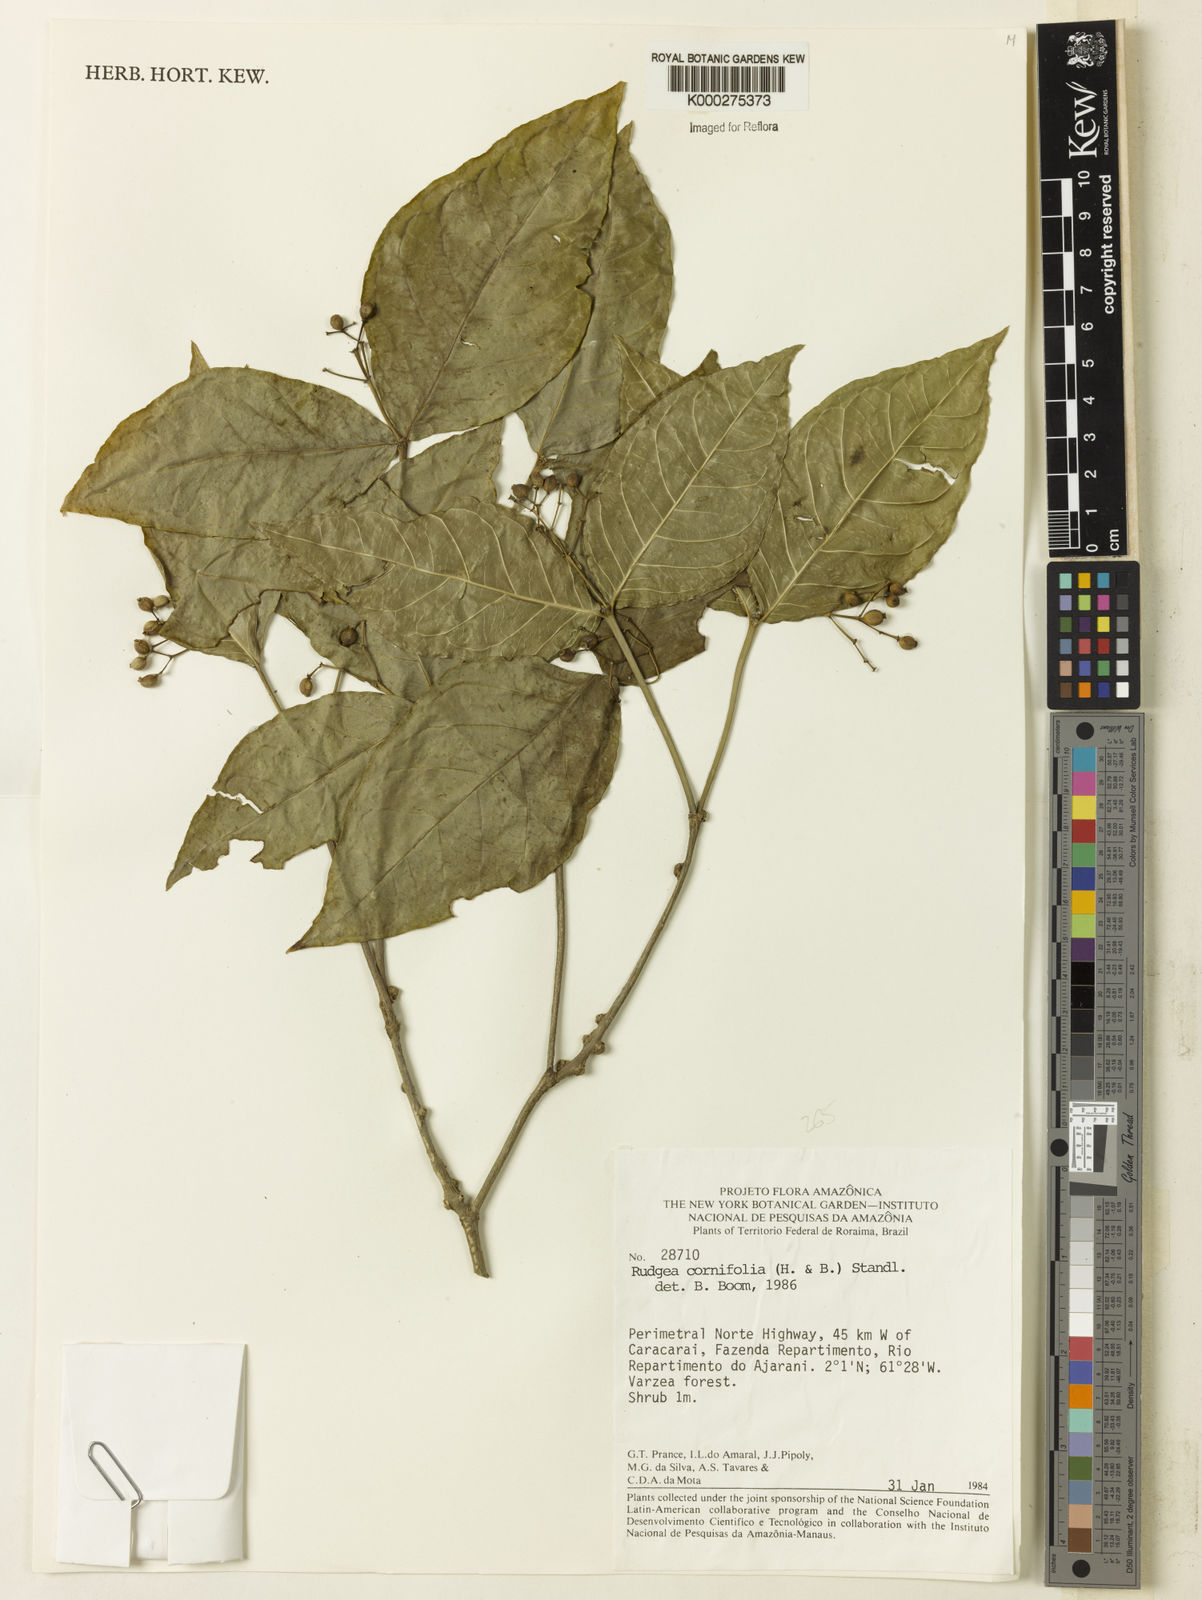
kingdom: Plantae
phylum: Tracheophyta
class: Magnoliopsida
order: Gentianales
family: Rubiaceae
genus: Rudgea
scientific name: Rudgea cornifolia
